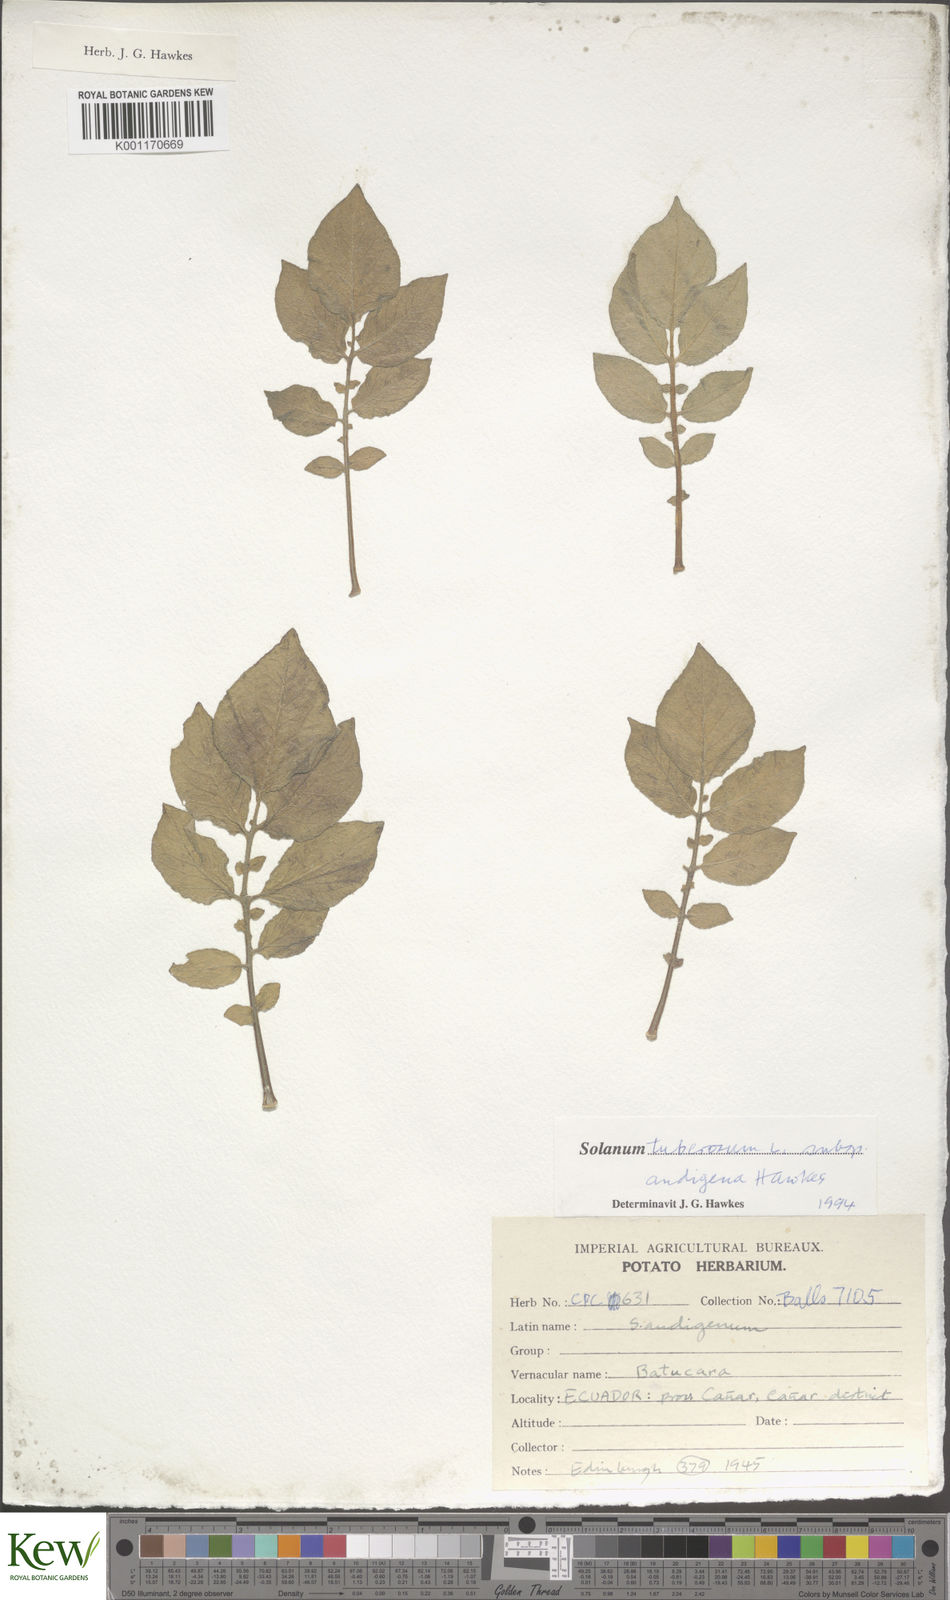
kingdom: Plantae
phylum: Tracheophyta
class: Magnoliopsida
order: Solanales
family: Solanaceae
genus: Solanum
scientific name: Solanum tuberosum
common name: Potato
